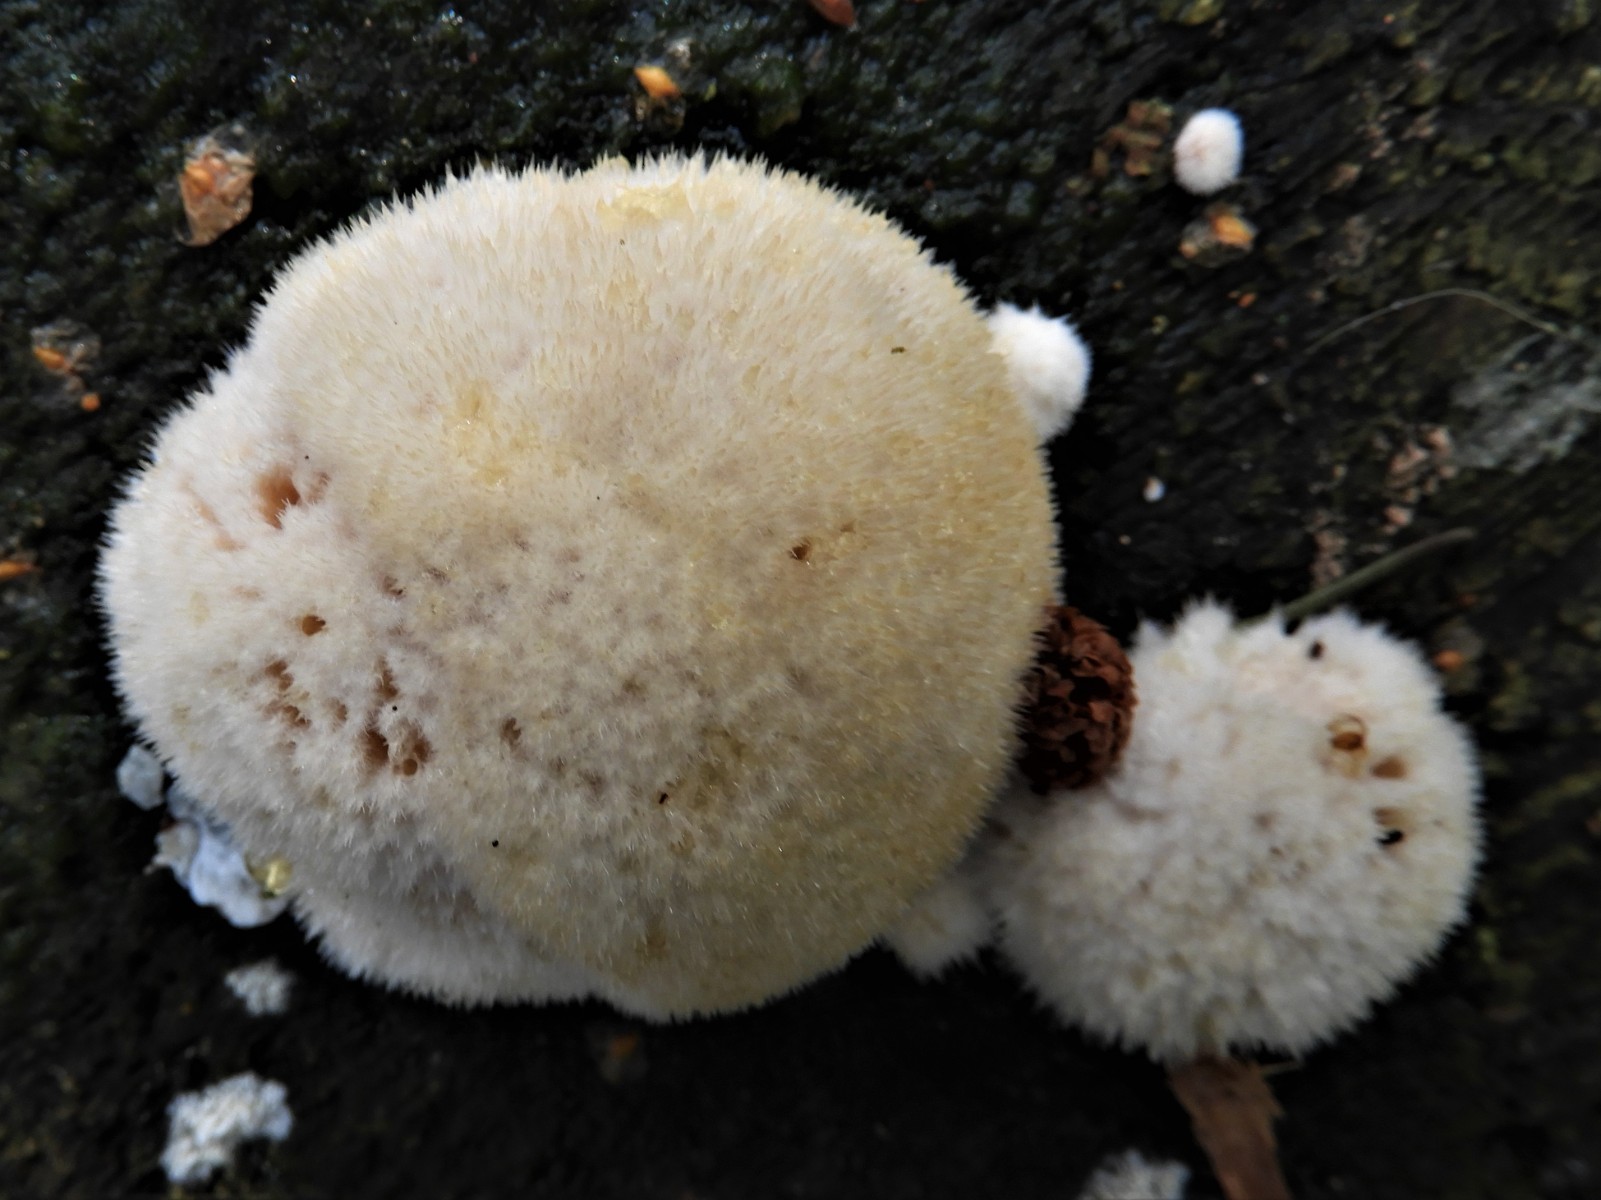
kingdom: Fungi
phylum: Basidiomycota
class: Agaricomycetes
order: Polyporales
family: Dacryobolaceae
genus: Postia
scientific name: Postia ptychogaster
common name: støvende kødporesvamp
